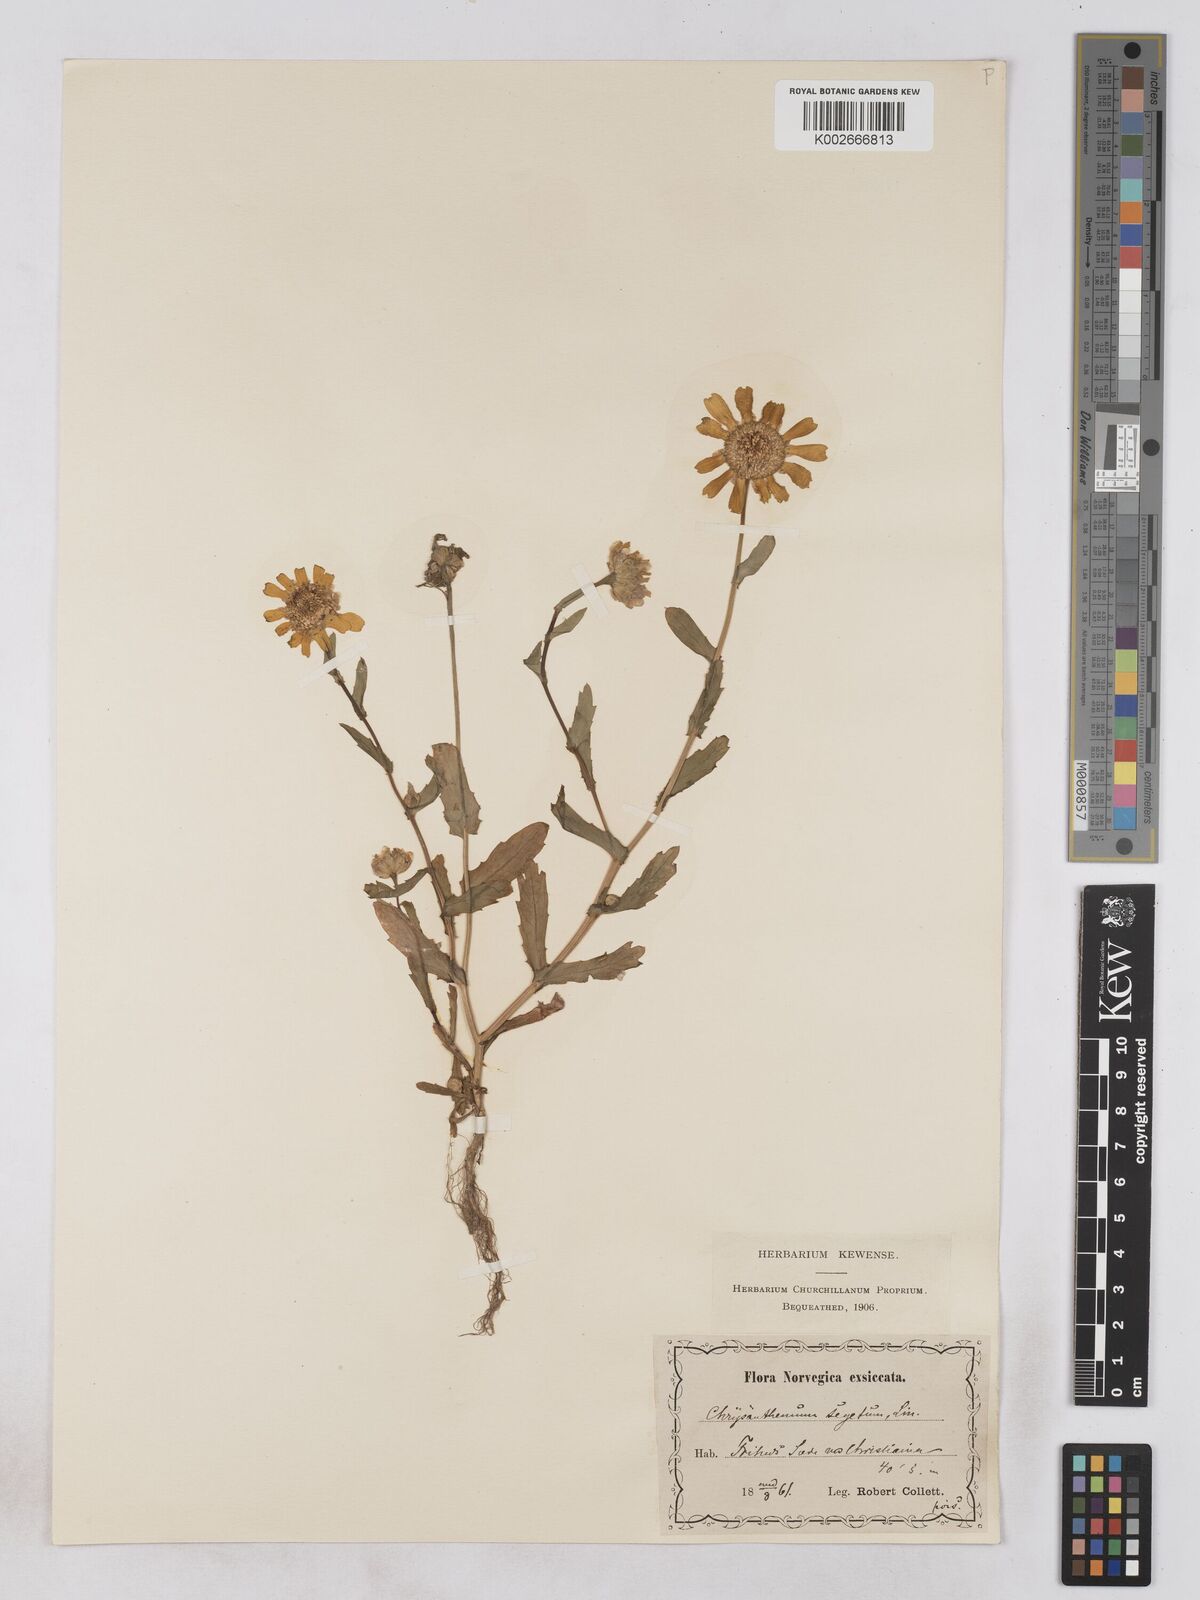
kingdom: Plantae
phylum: Tracheophyta
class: Magnoliopsida
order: Asterales
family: Asteraceae
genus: Glebionis
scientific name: Glebionis segetum
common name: Corndaisy
